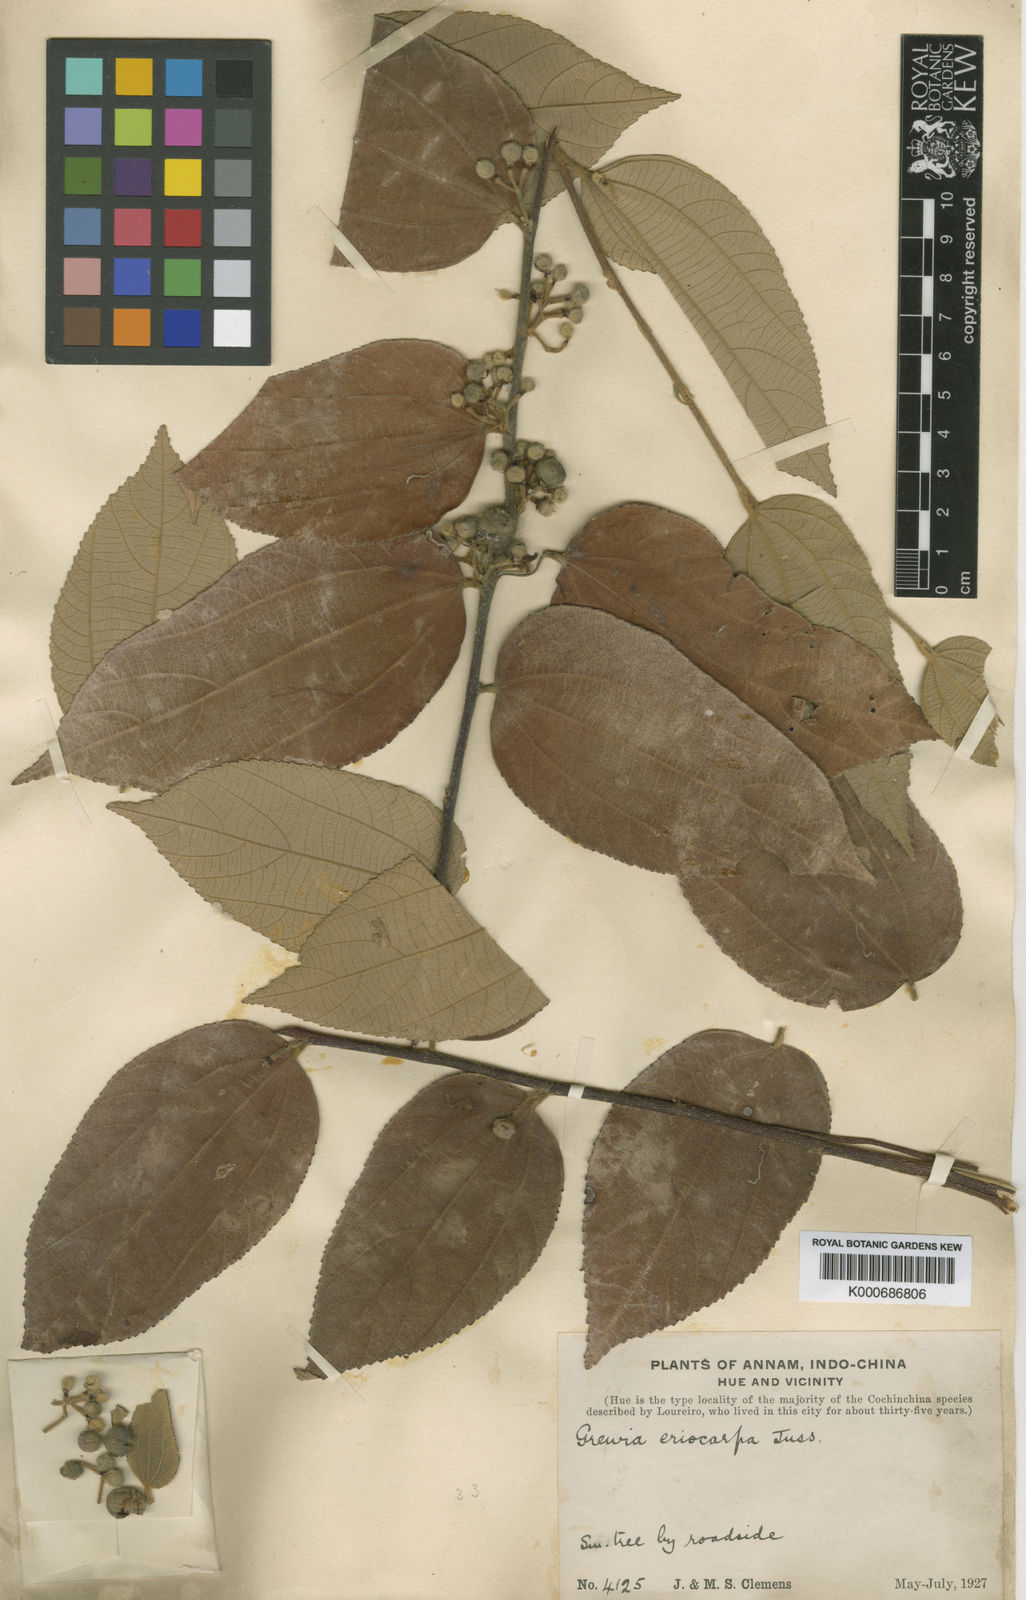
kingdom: Plantae
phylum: Tracheophyta
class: Magnoliopsida
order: Malvales
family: Malvaceae
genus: Grewia
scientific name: Grewia eriocarpa
